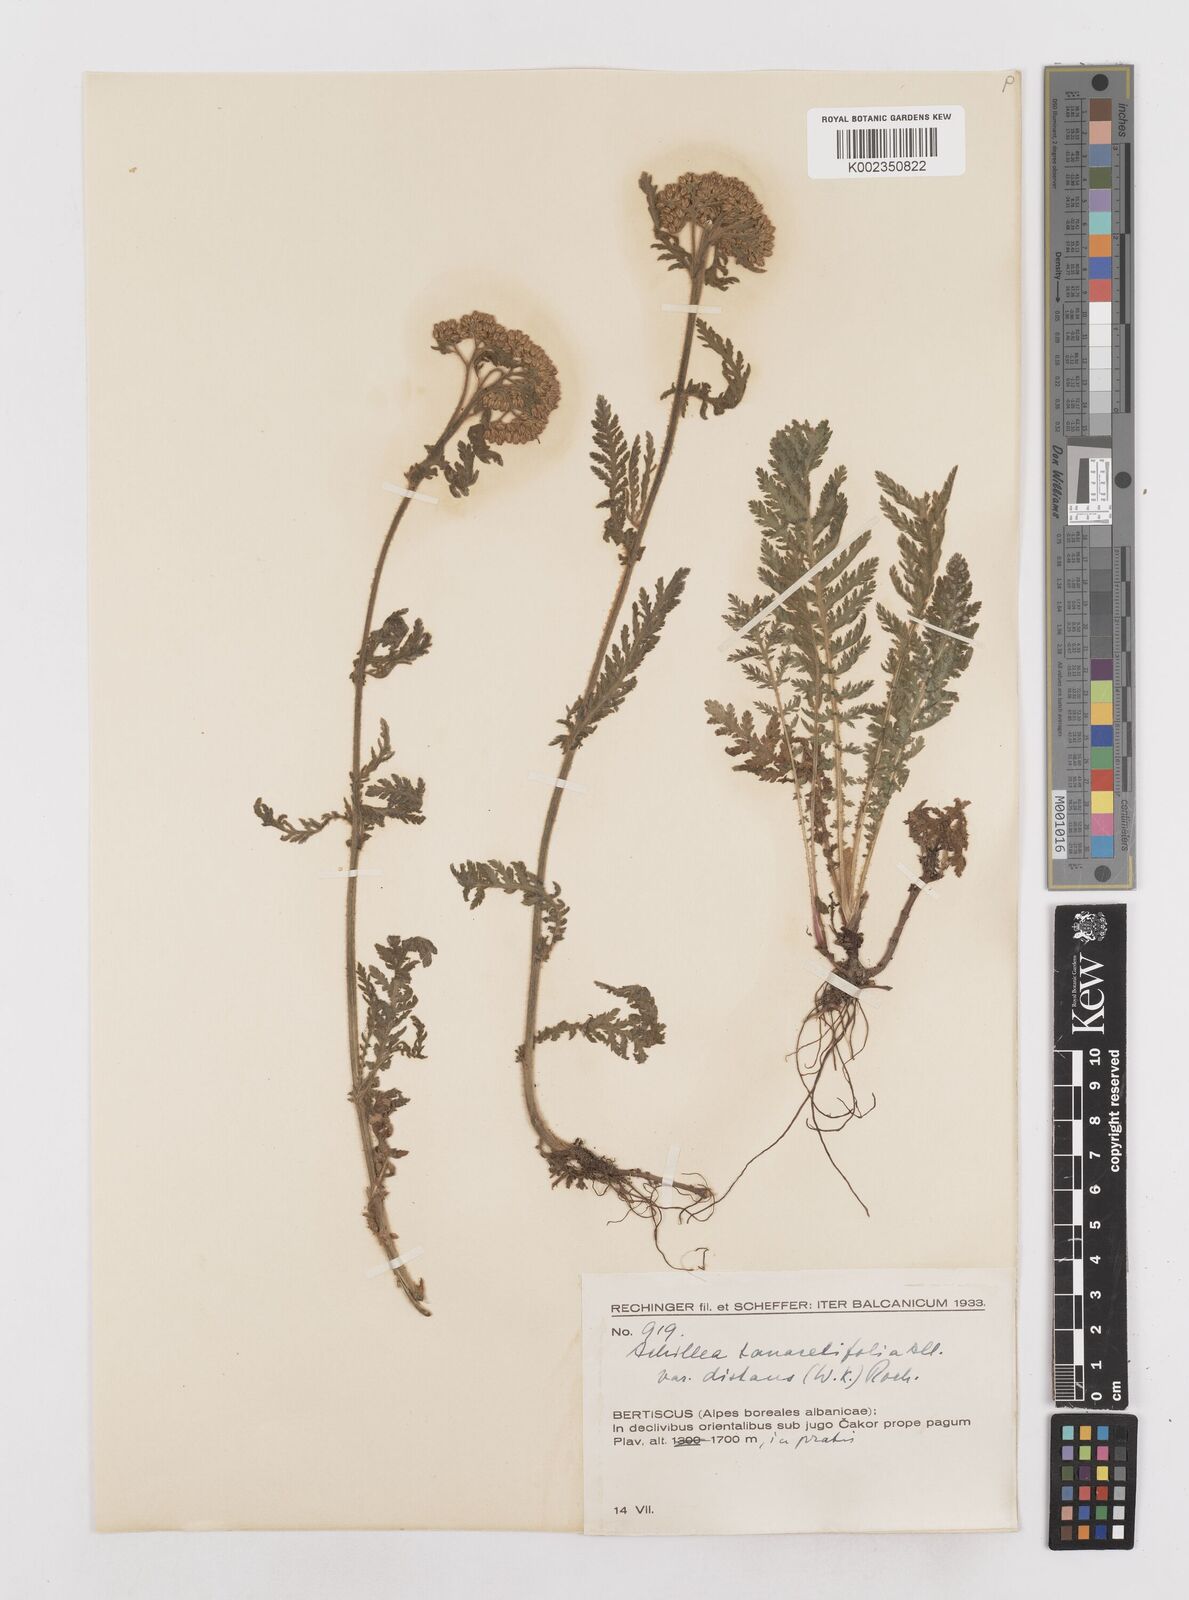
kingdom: Plantae
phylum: Tracheophyta
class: Magnoliopsida
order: Asterales
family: Asteraceae
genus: Achillea
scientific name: Achillea distans
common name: Tall yarrow
